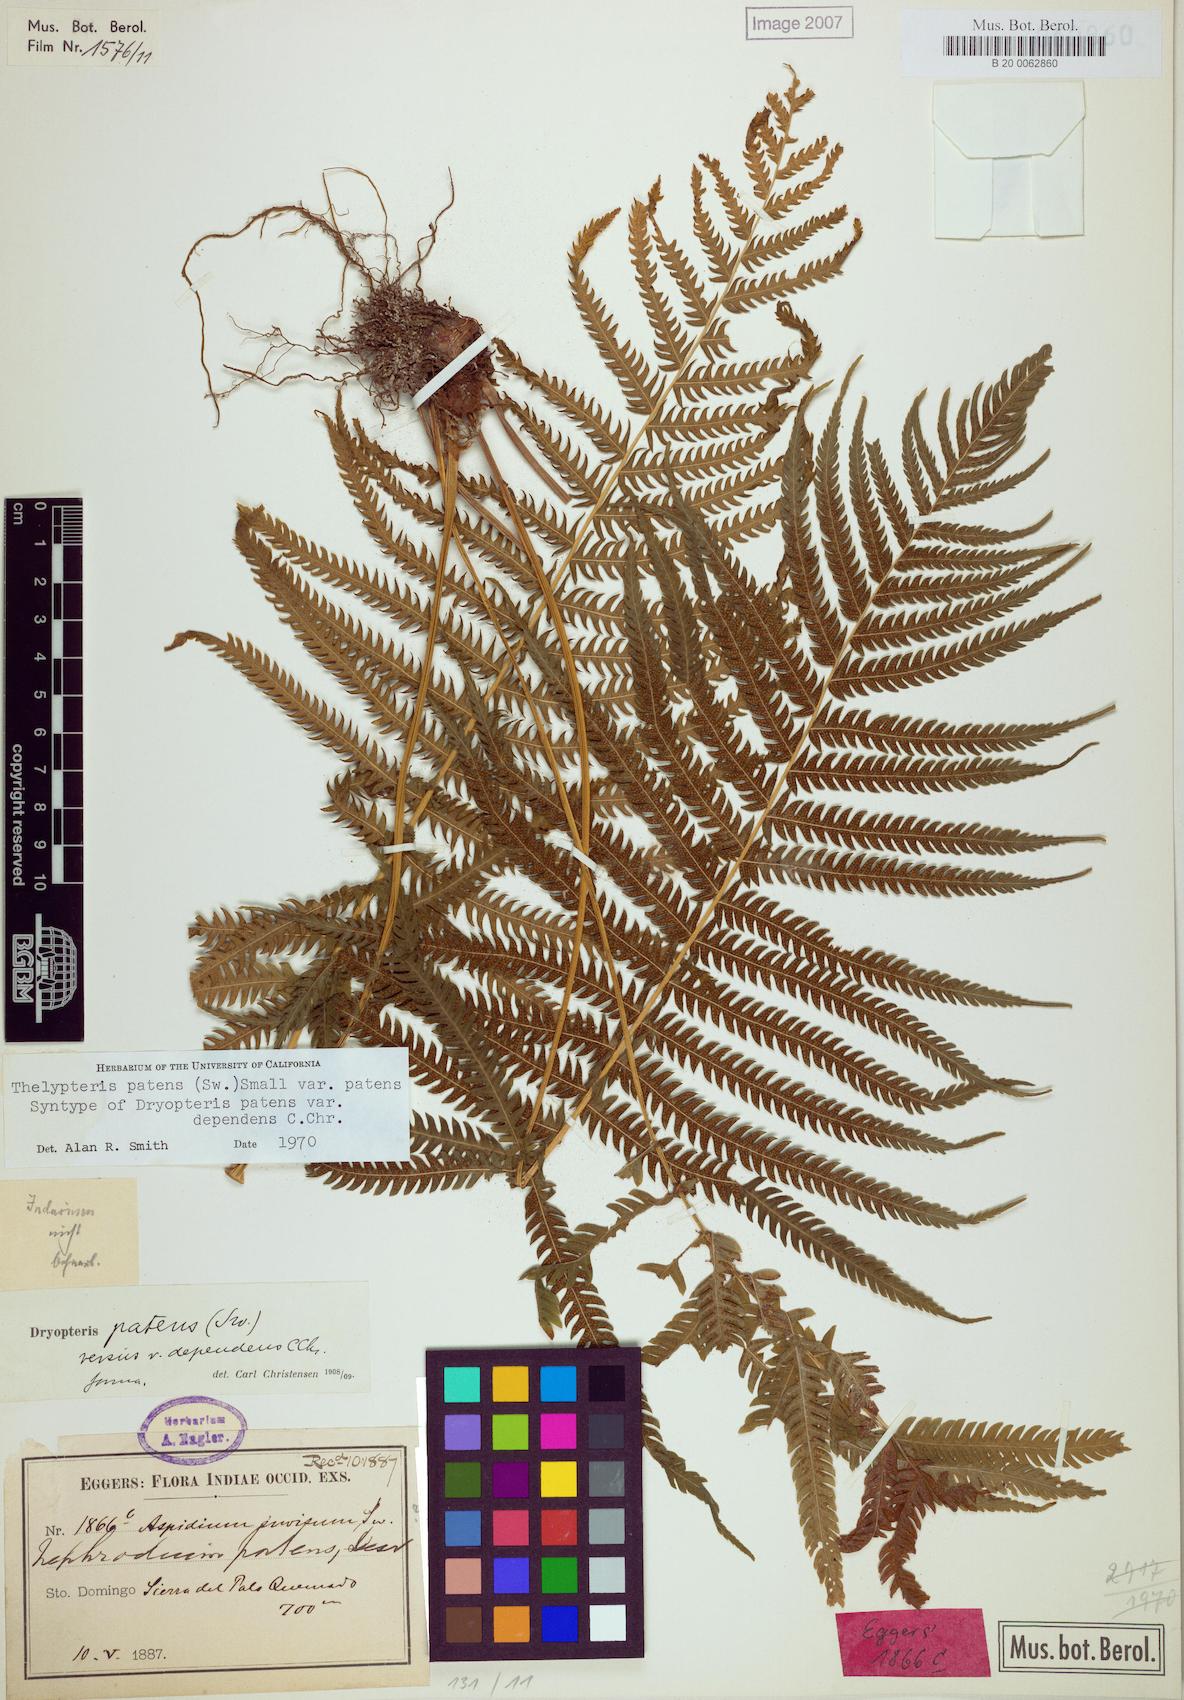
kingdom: Plantae
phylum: Tracheophyta
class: Polypodiopsida
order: Polypodiales
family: Thelypteridaceae
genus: Pelazoneuron
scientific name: Pelazoneuron patens
